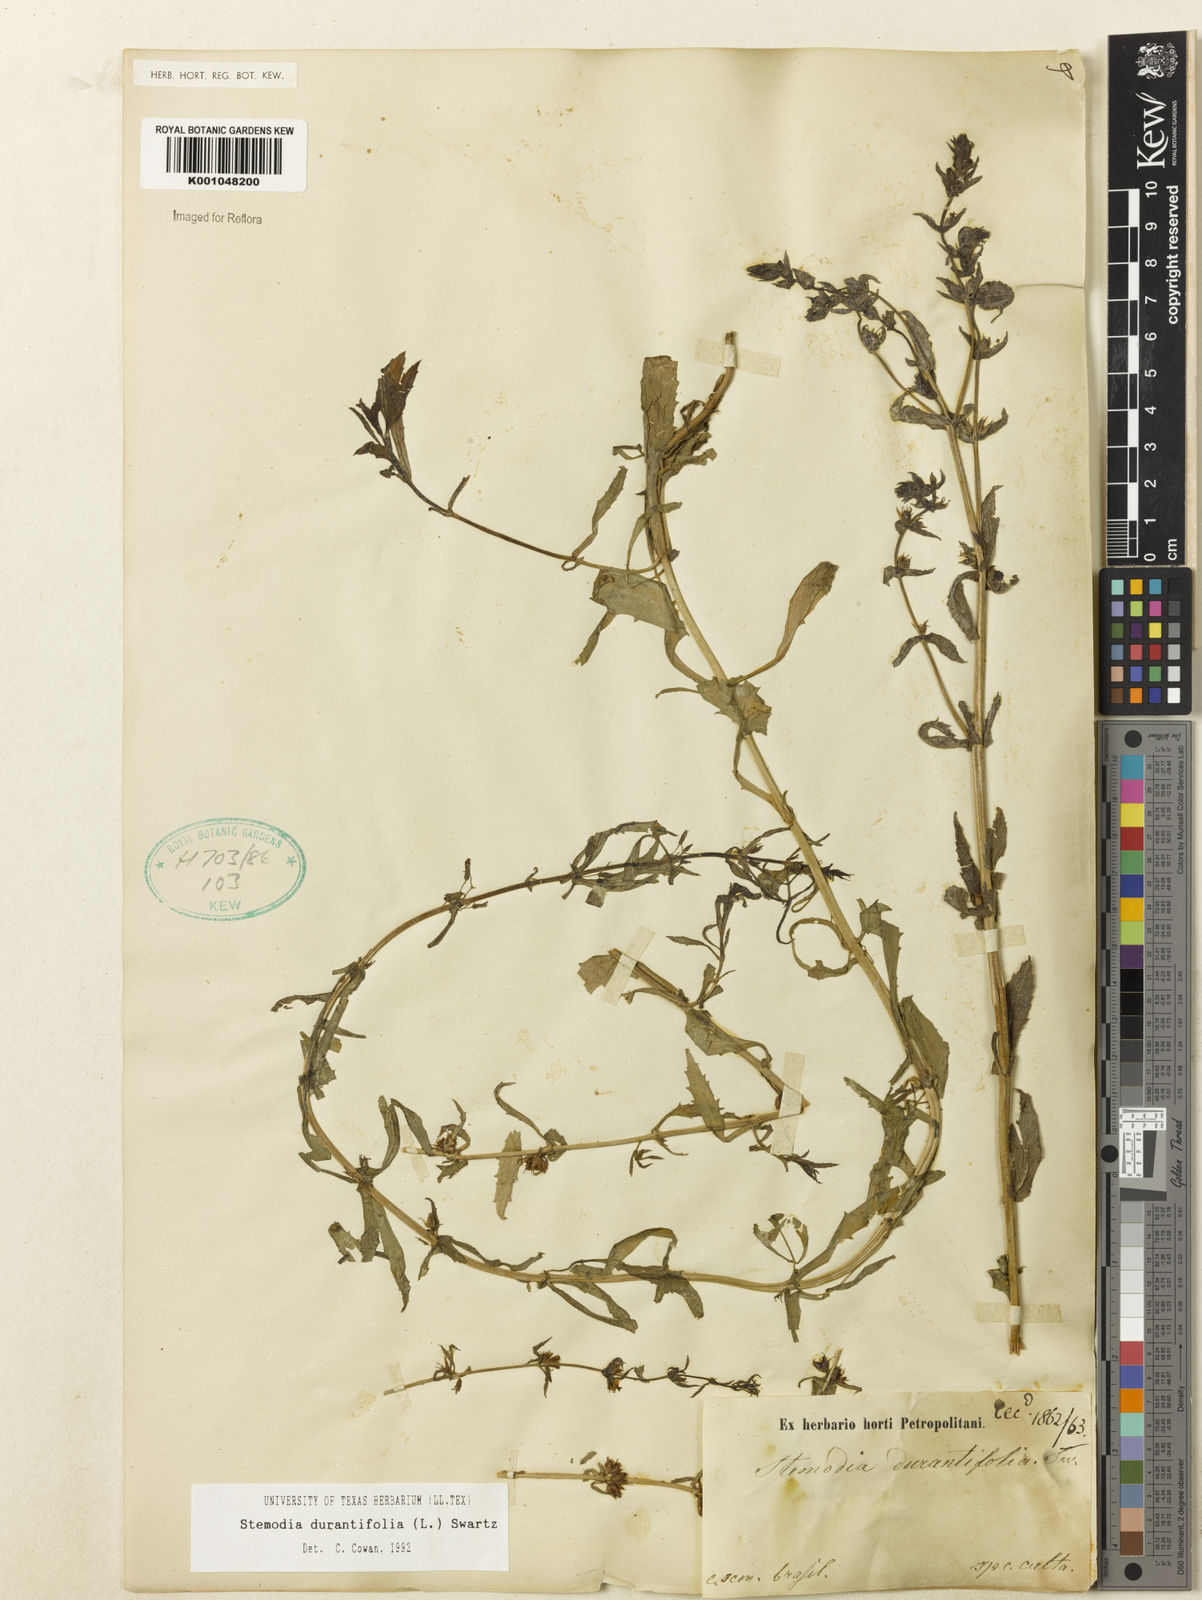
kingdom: Plantae
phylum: Tracheophyta
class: Magnoliopsida
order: Lamiales
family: Plantaginaceae
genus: Stemodia
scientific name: Stemodia durantifolia
